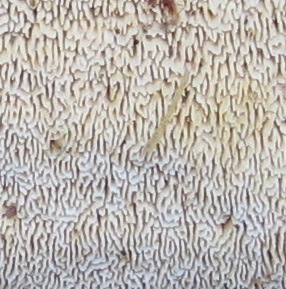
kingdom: Fungi
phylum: Basidiomycota
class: Agaricomycetes
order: Hymenochaetales
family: Schizoporaceae
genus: Xylodon
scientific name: Xylodon subtropicus
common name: labyrint-tandsvamp
